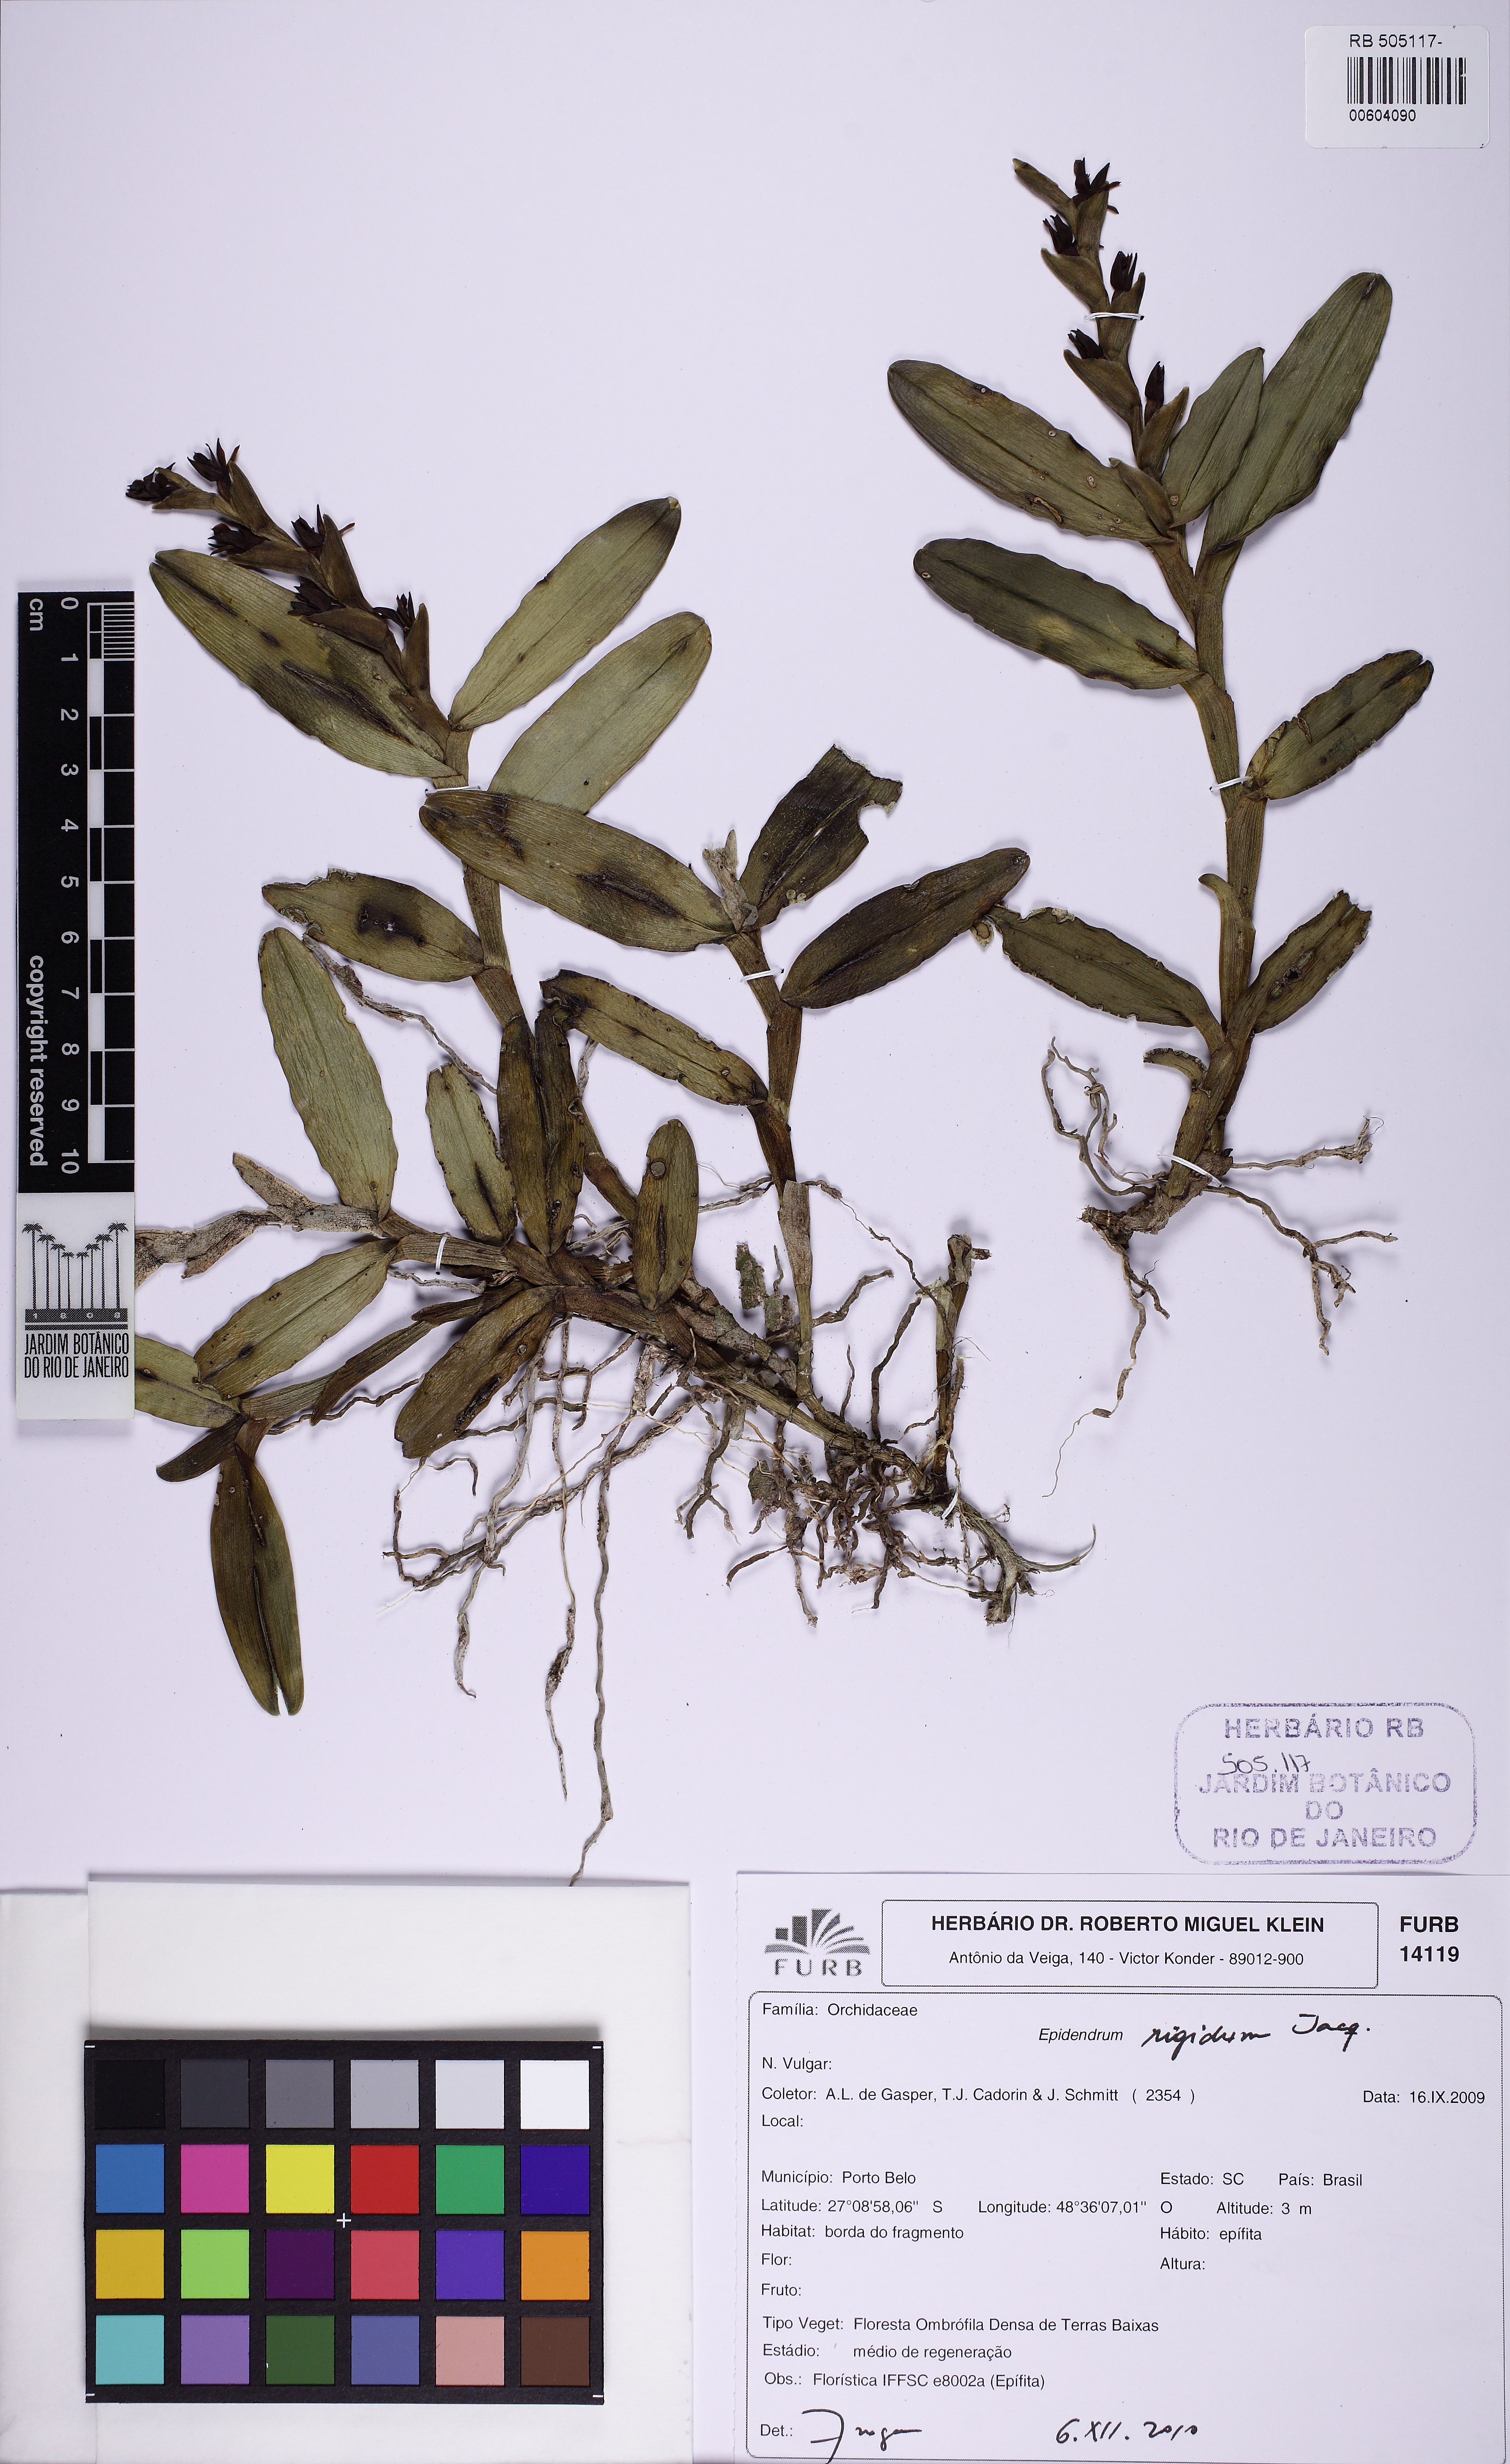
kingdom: Plantae
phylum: Tracheophyta
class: Liliopsida
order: Asparagales
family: Orchidaceae
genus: Epidendrum
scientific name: Epidendrum rigidum
